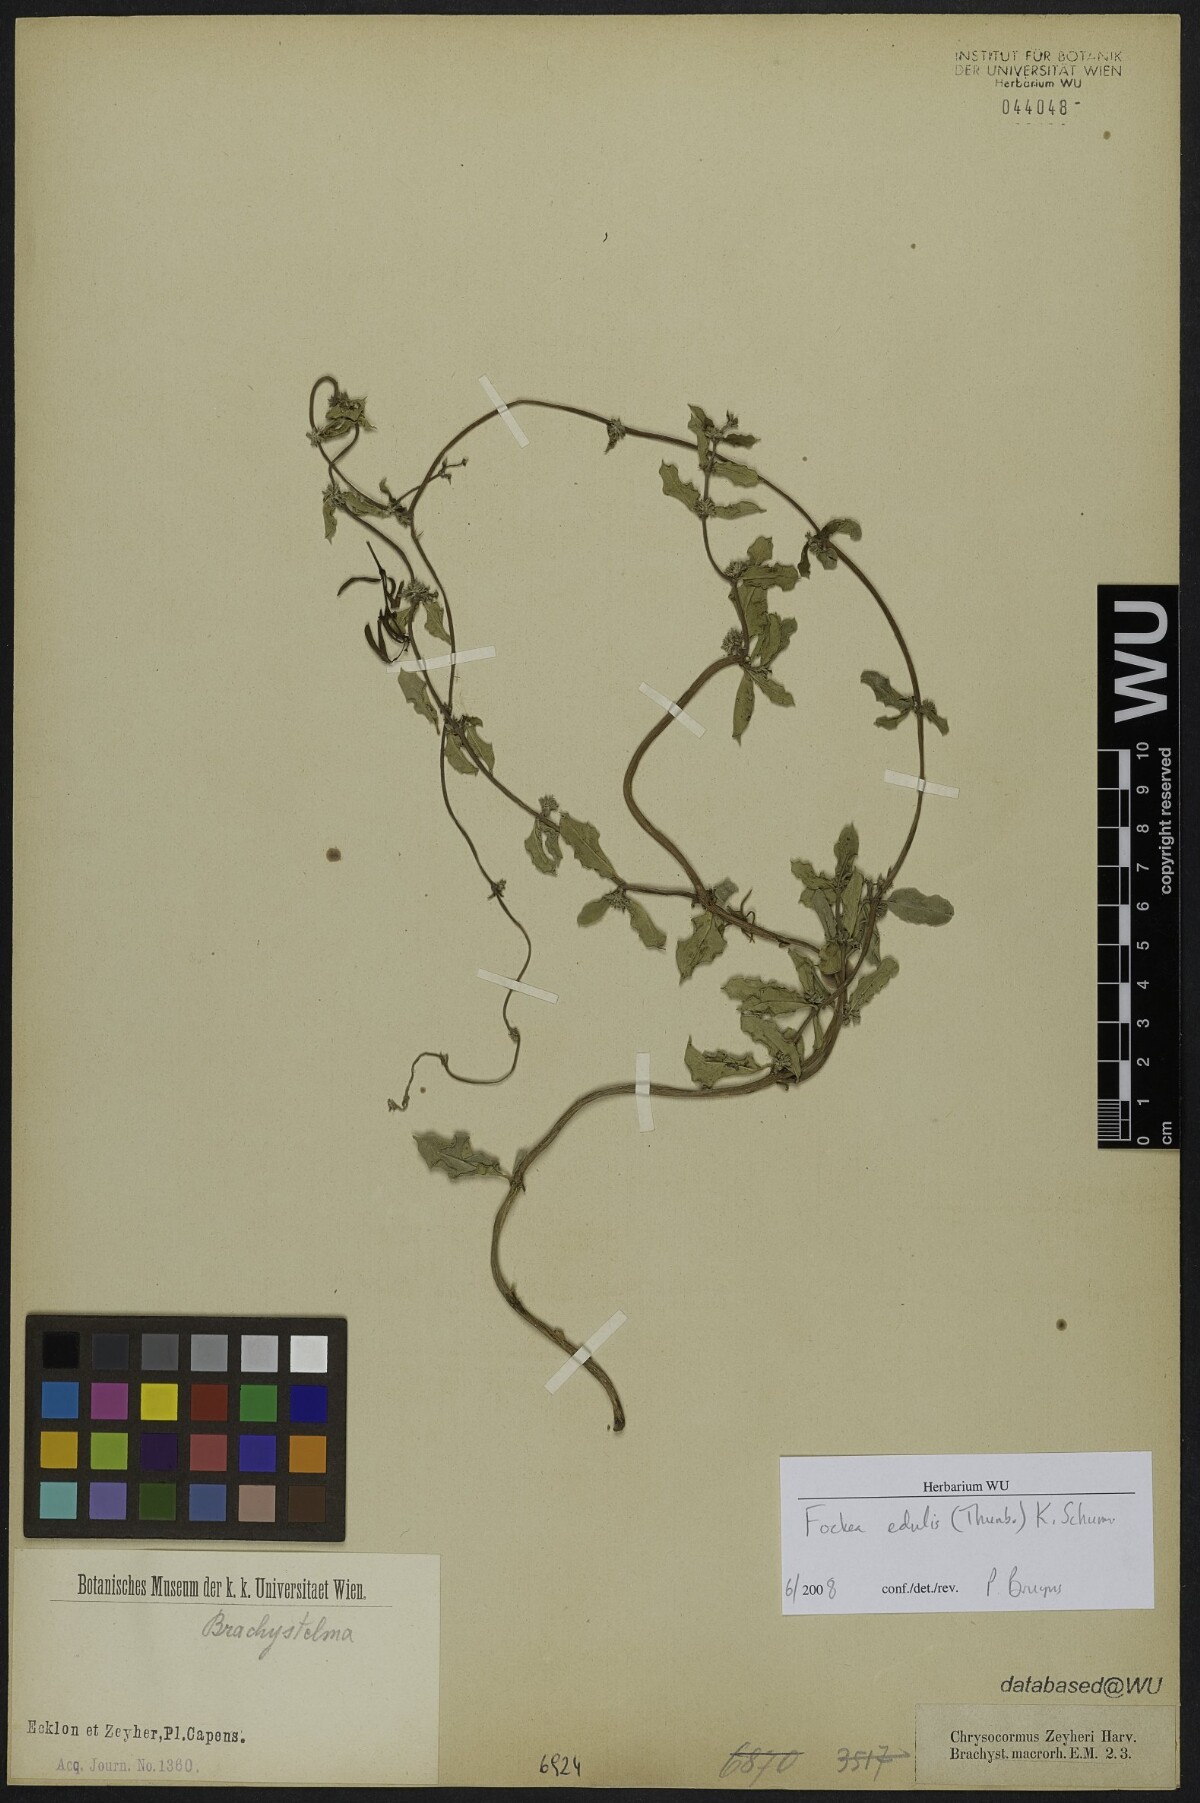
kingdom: Plantae
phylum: Tracheophyta
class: Magnoliopsida
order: Gentianales
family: Apocynaceae
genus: Fockea
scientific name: Fockea edulis
